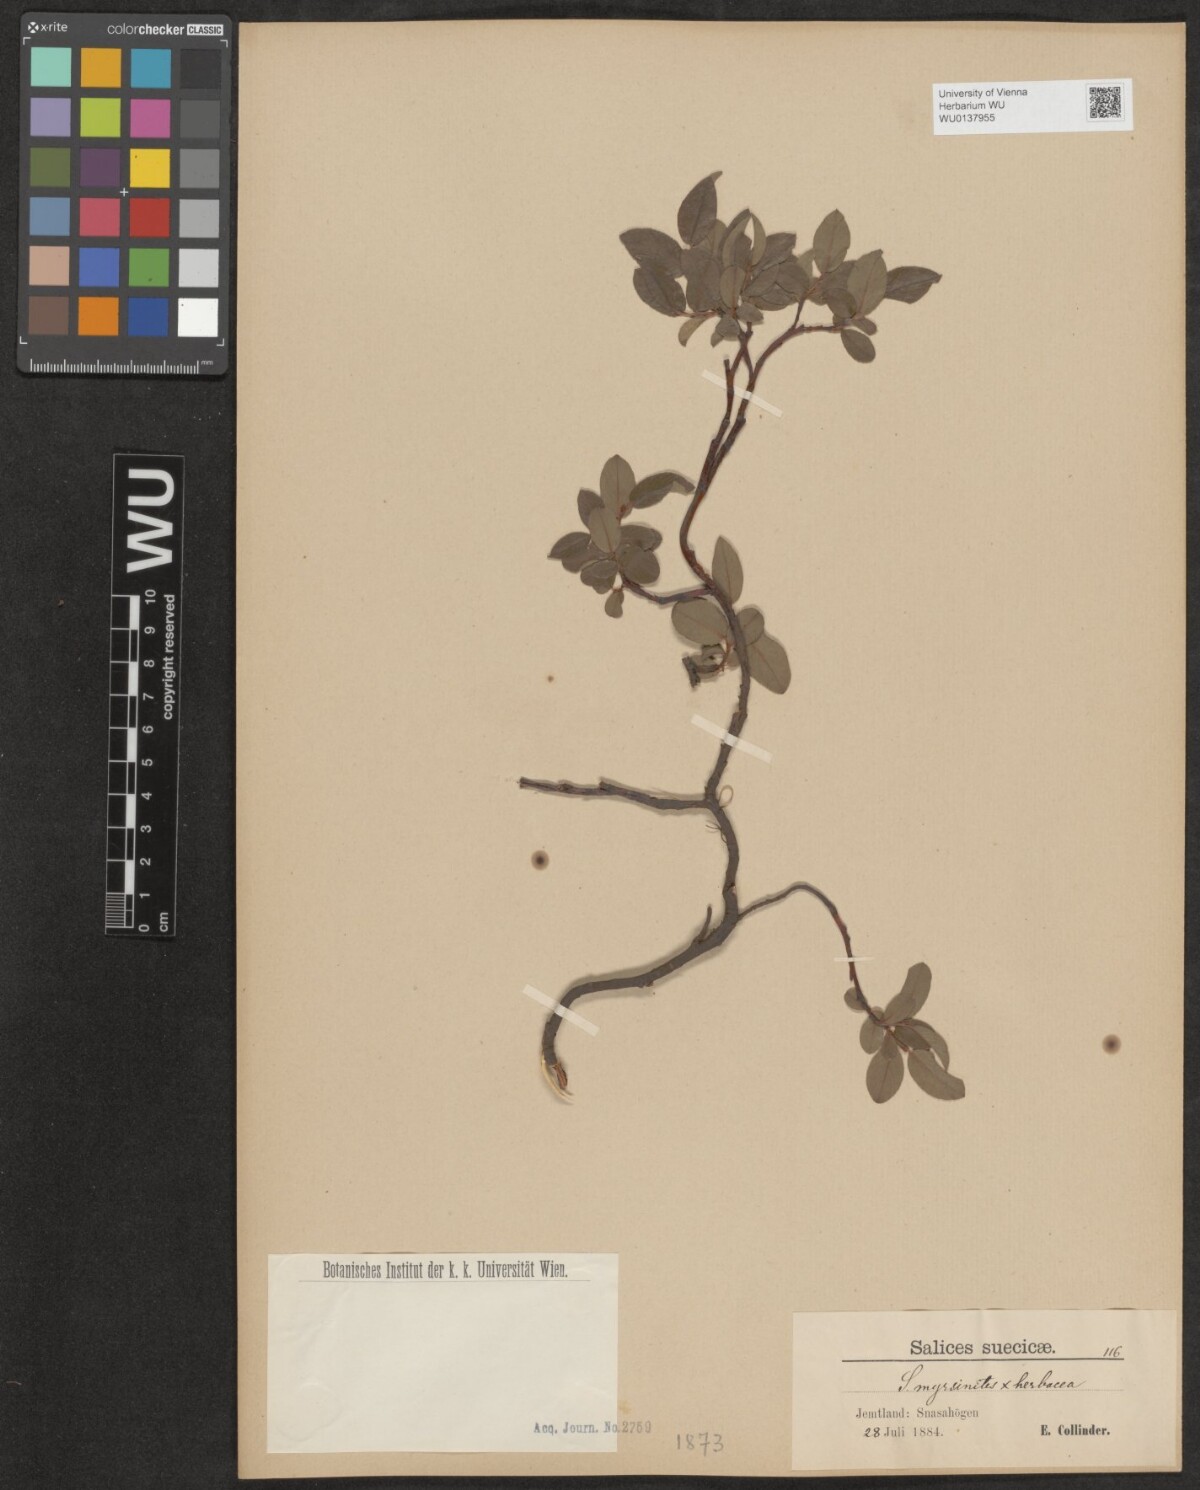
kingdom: Plantae
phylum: Tracheophyta
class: Magnoliopsida
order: Malpighiales
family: Salicaceae
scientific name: Salicaceae
